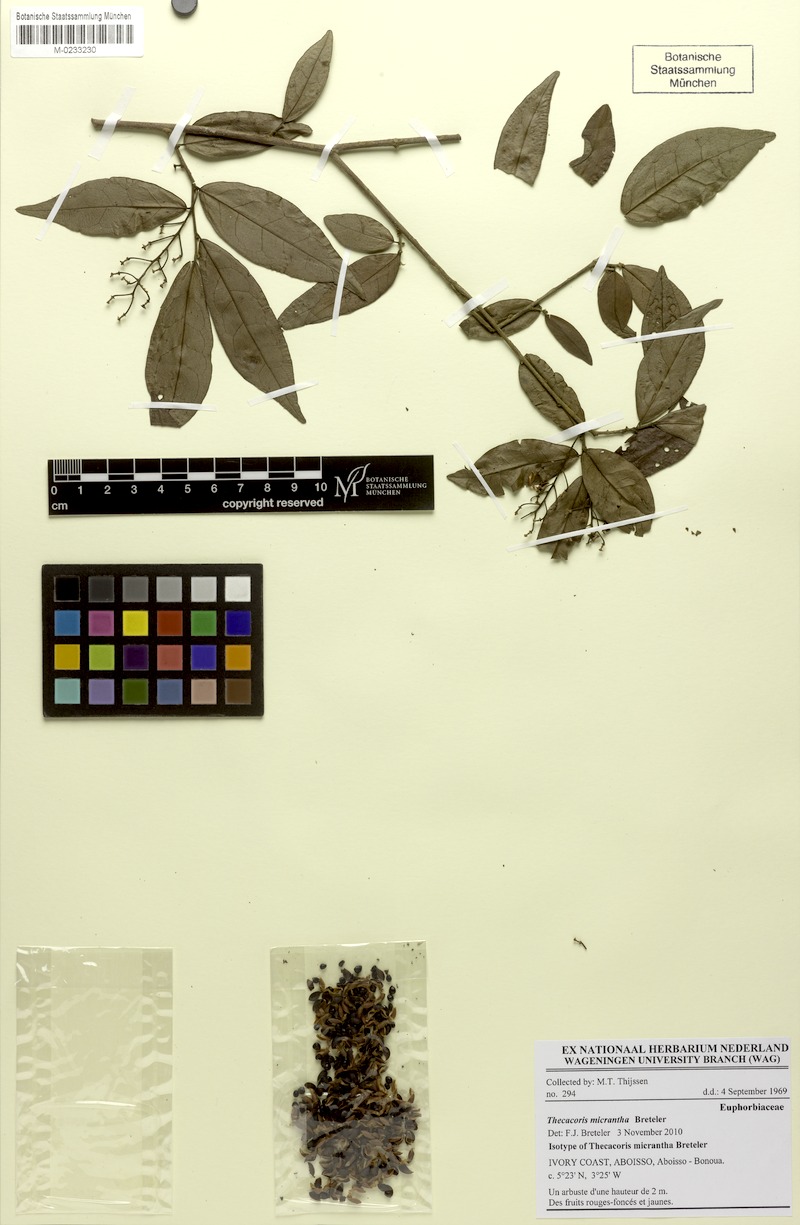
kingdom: Plantae
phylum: Tracheophyta
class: Magnoliopsida
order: Malpighiales
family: Phyllanthaceae
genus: Thecacoris
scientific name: Thecacoris micrantha
